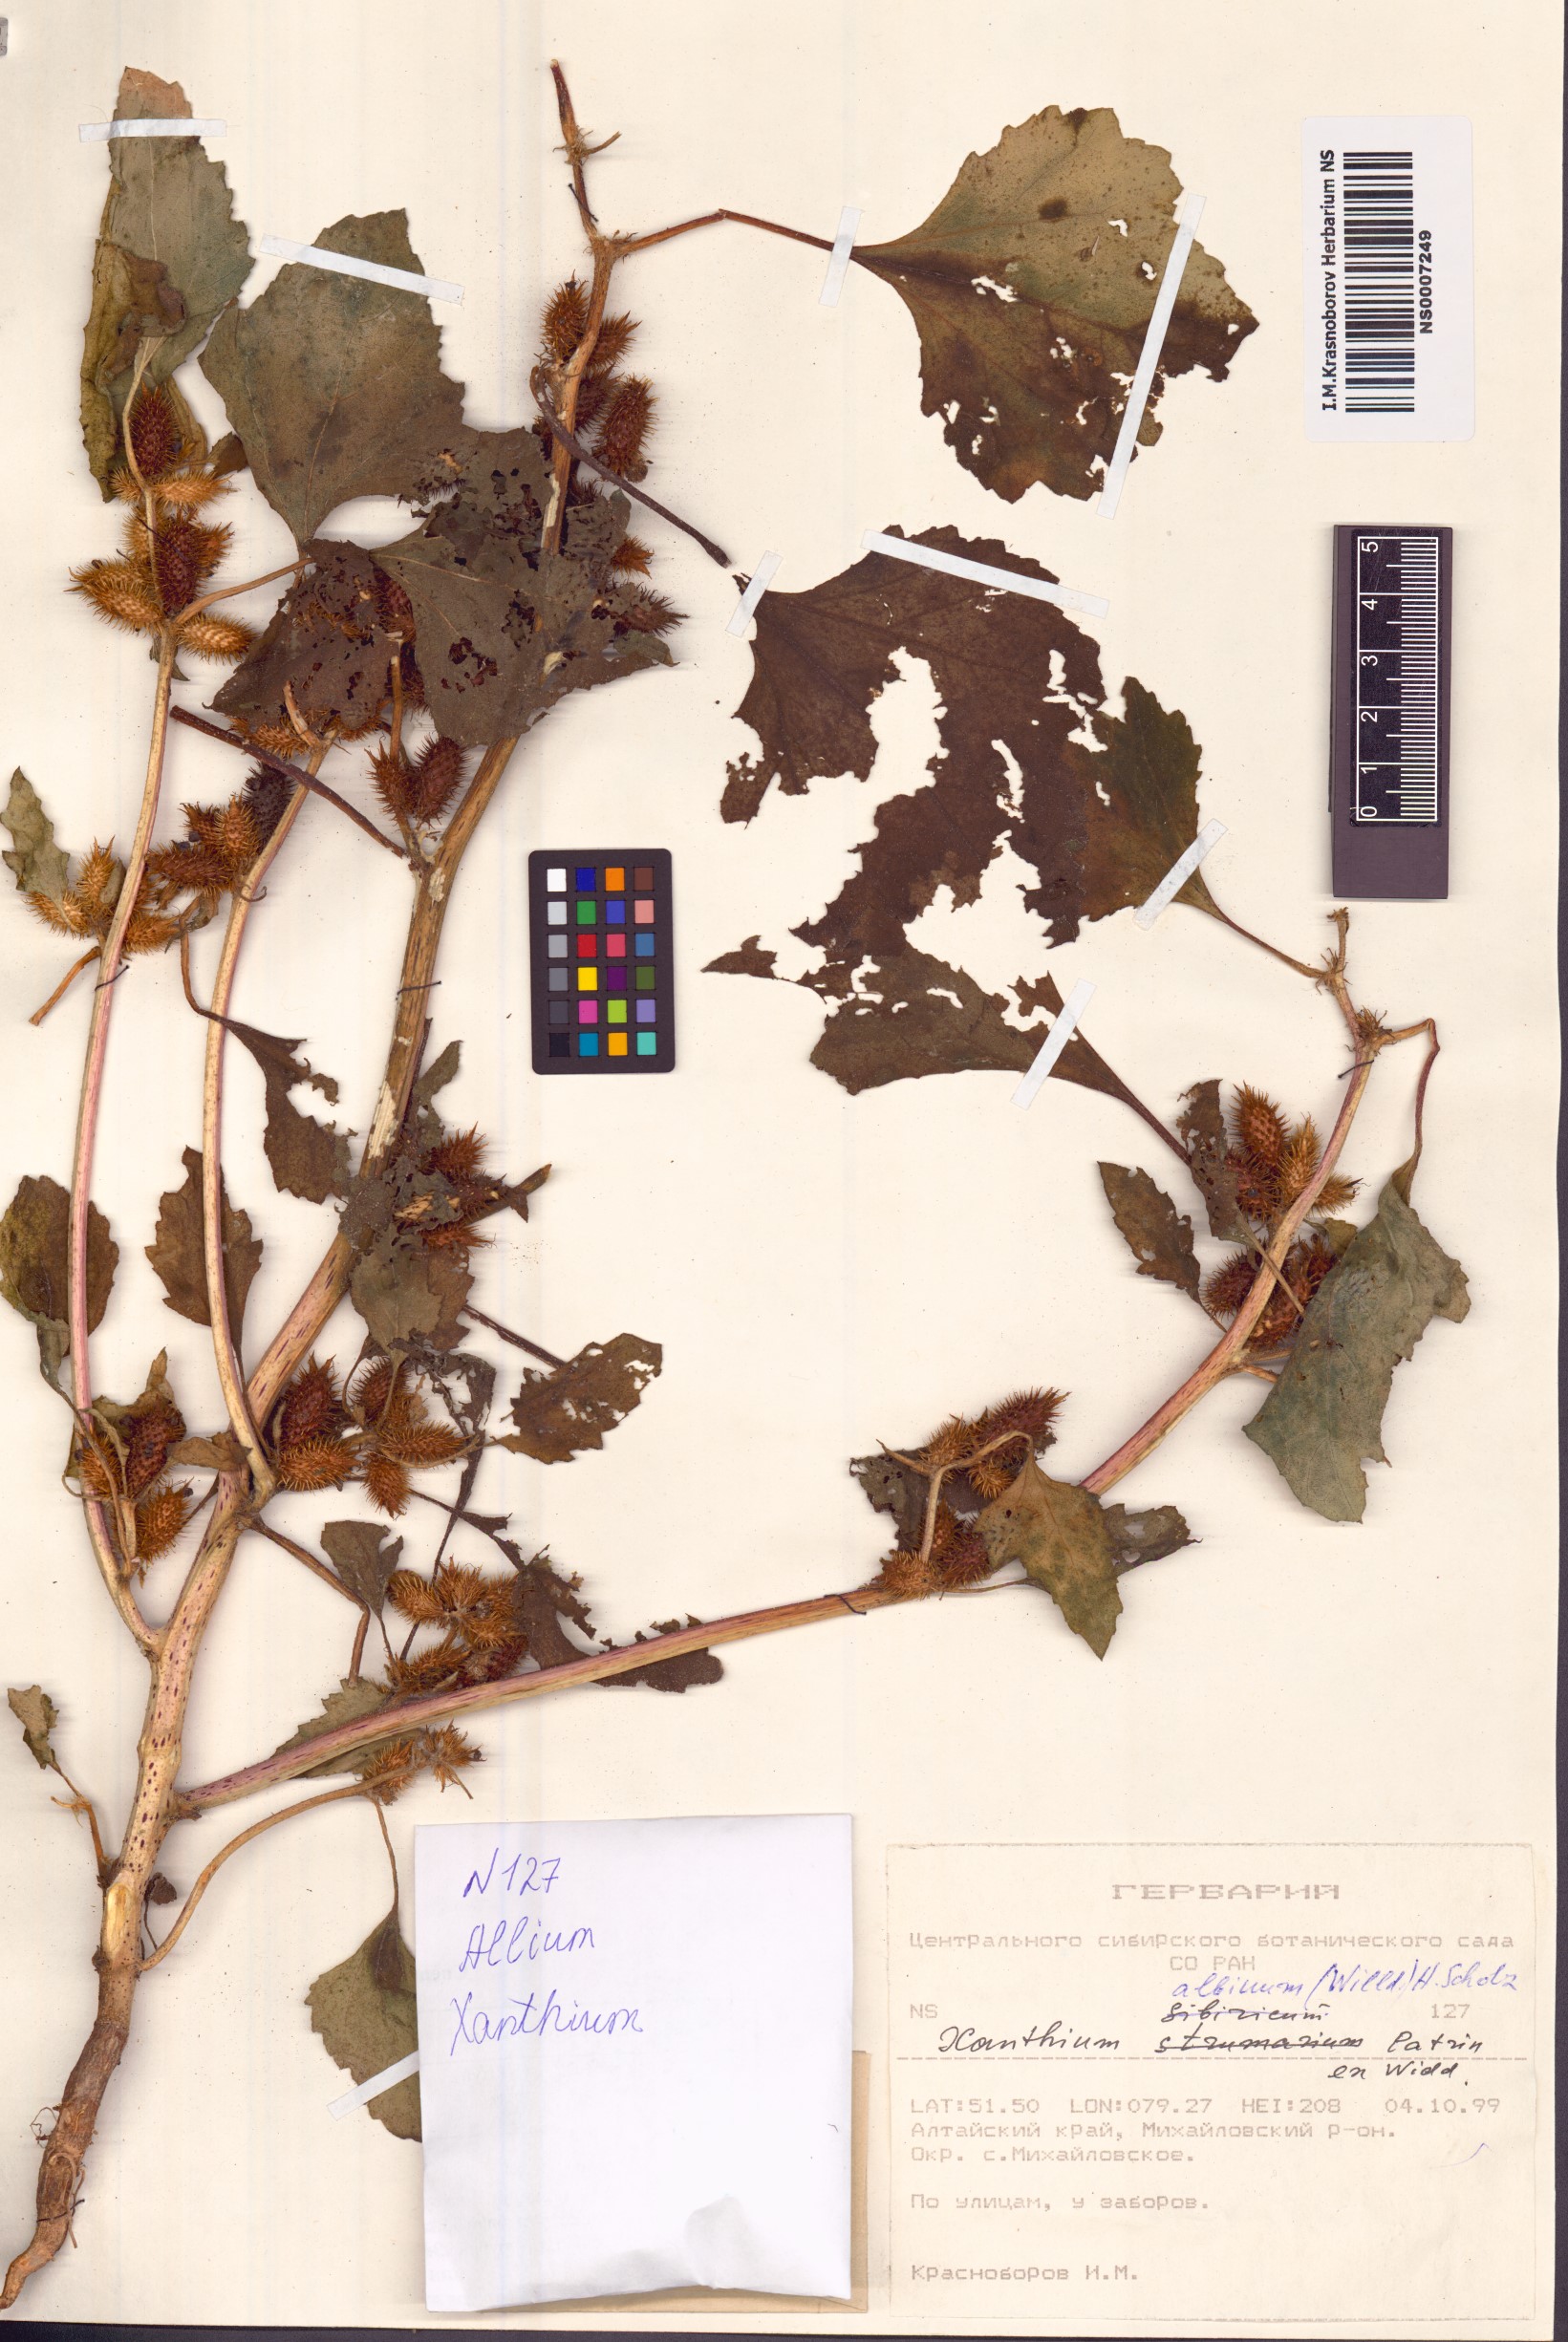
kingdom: Plantae
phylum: Tracheophyta
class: Magnoliopsida
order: Asterales
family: Asteraceae
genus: Xanthium
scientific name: Xanthium orientale
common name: Californian burr
